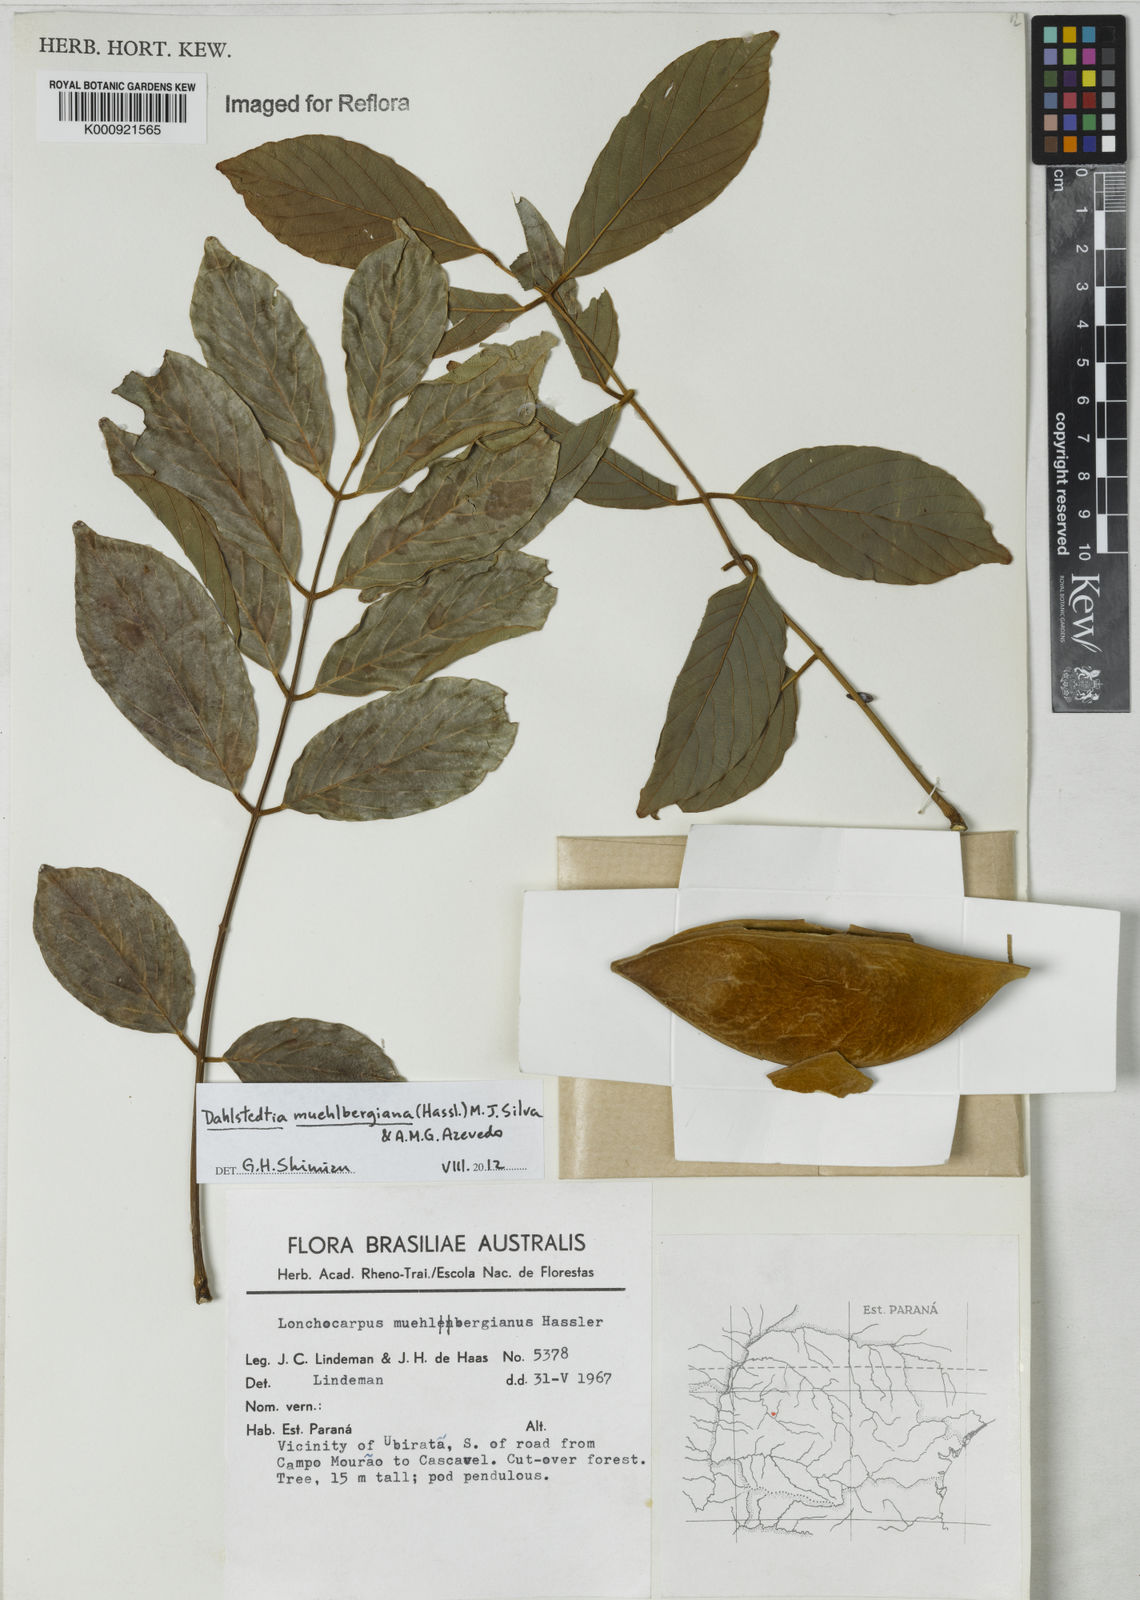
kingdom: Plantae
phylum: Tracheophyta
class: Magnoliopsida
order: Fabales
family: Fabaceae
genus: Dahlstedtia
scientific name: Dahlstedtia muehlbergiana
